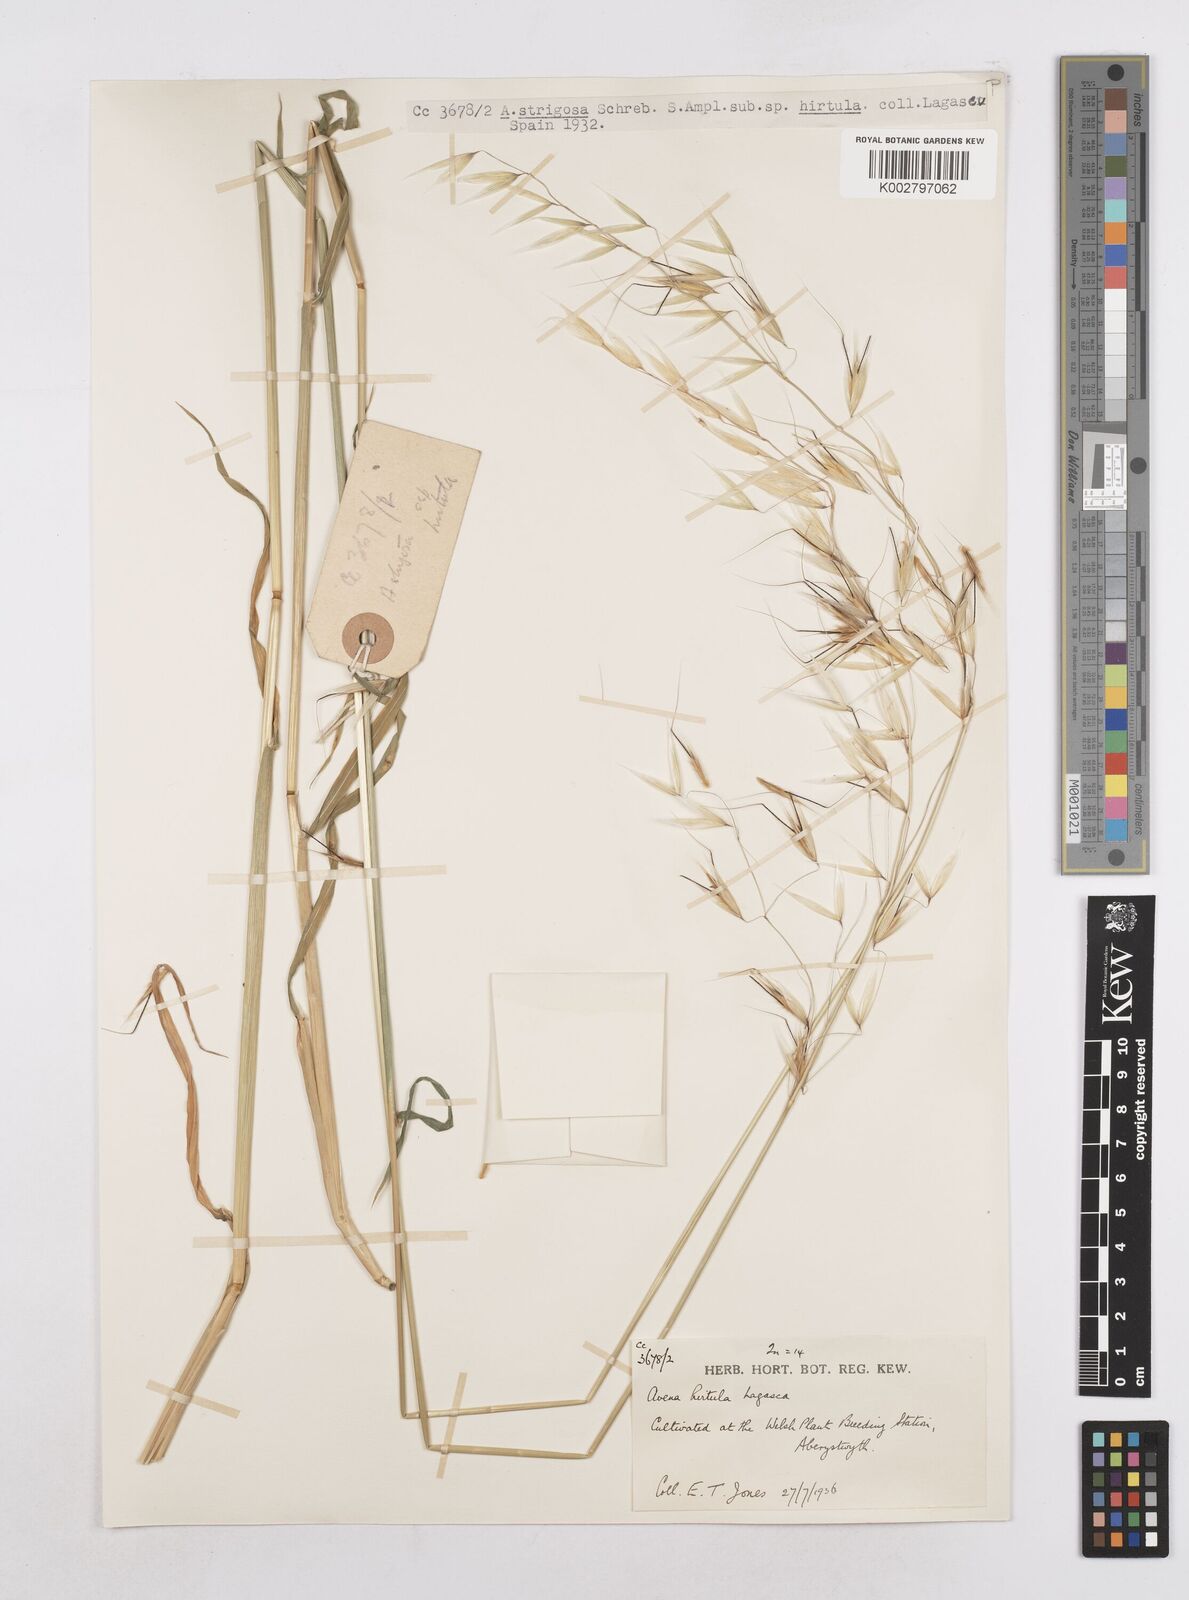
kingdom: Plantae
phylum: Tracheophyta
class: Liliopsida
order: Poales
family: Poaceae
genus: Avena
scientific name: Avena
